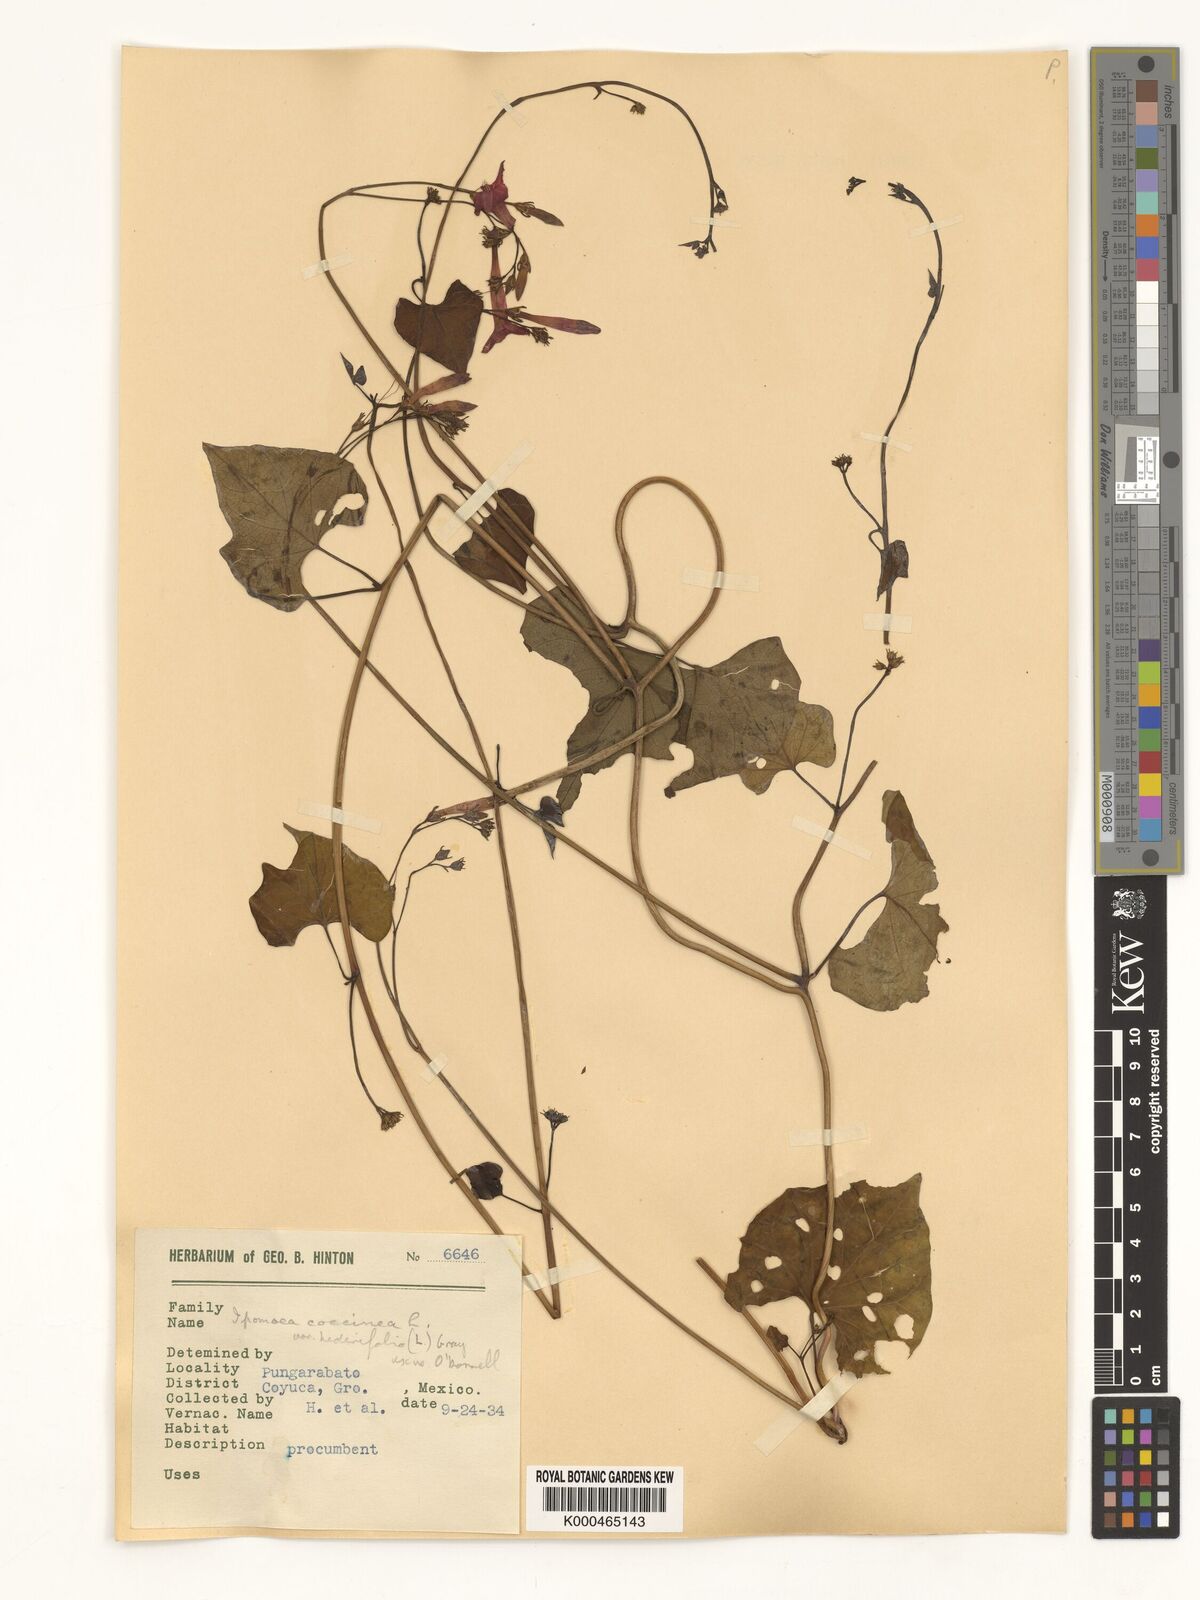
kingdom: Plantae
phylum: Tracheophyta
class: Magnoliopsida
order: Solanales
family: Convolvulaceae
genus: Ipomoea
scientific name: Ipomoea hederifolia
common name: Ivy-leaf morning-glory
